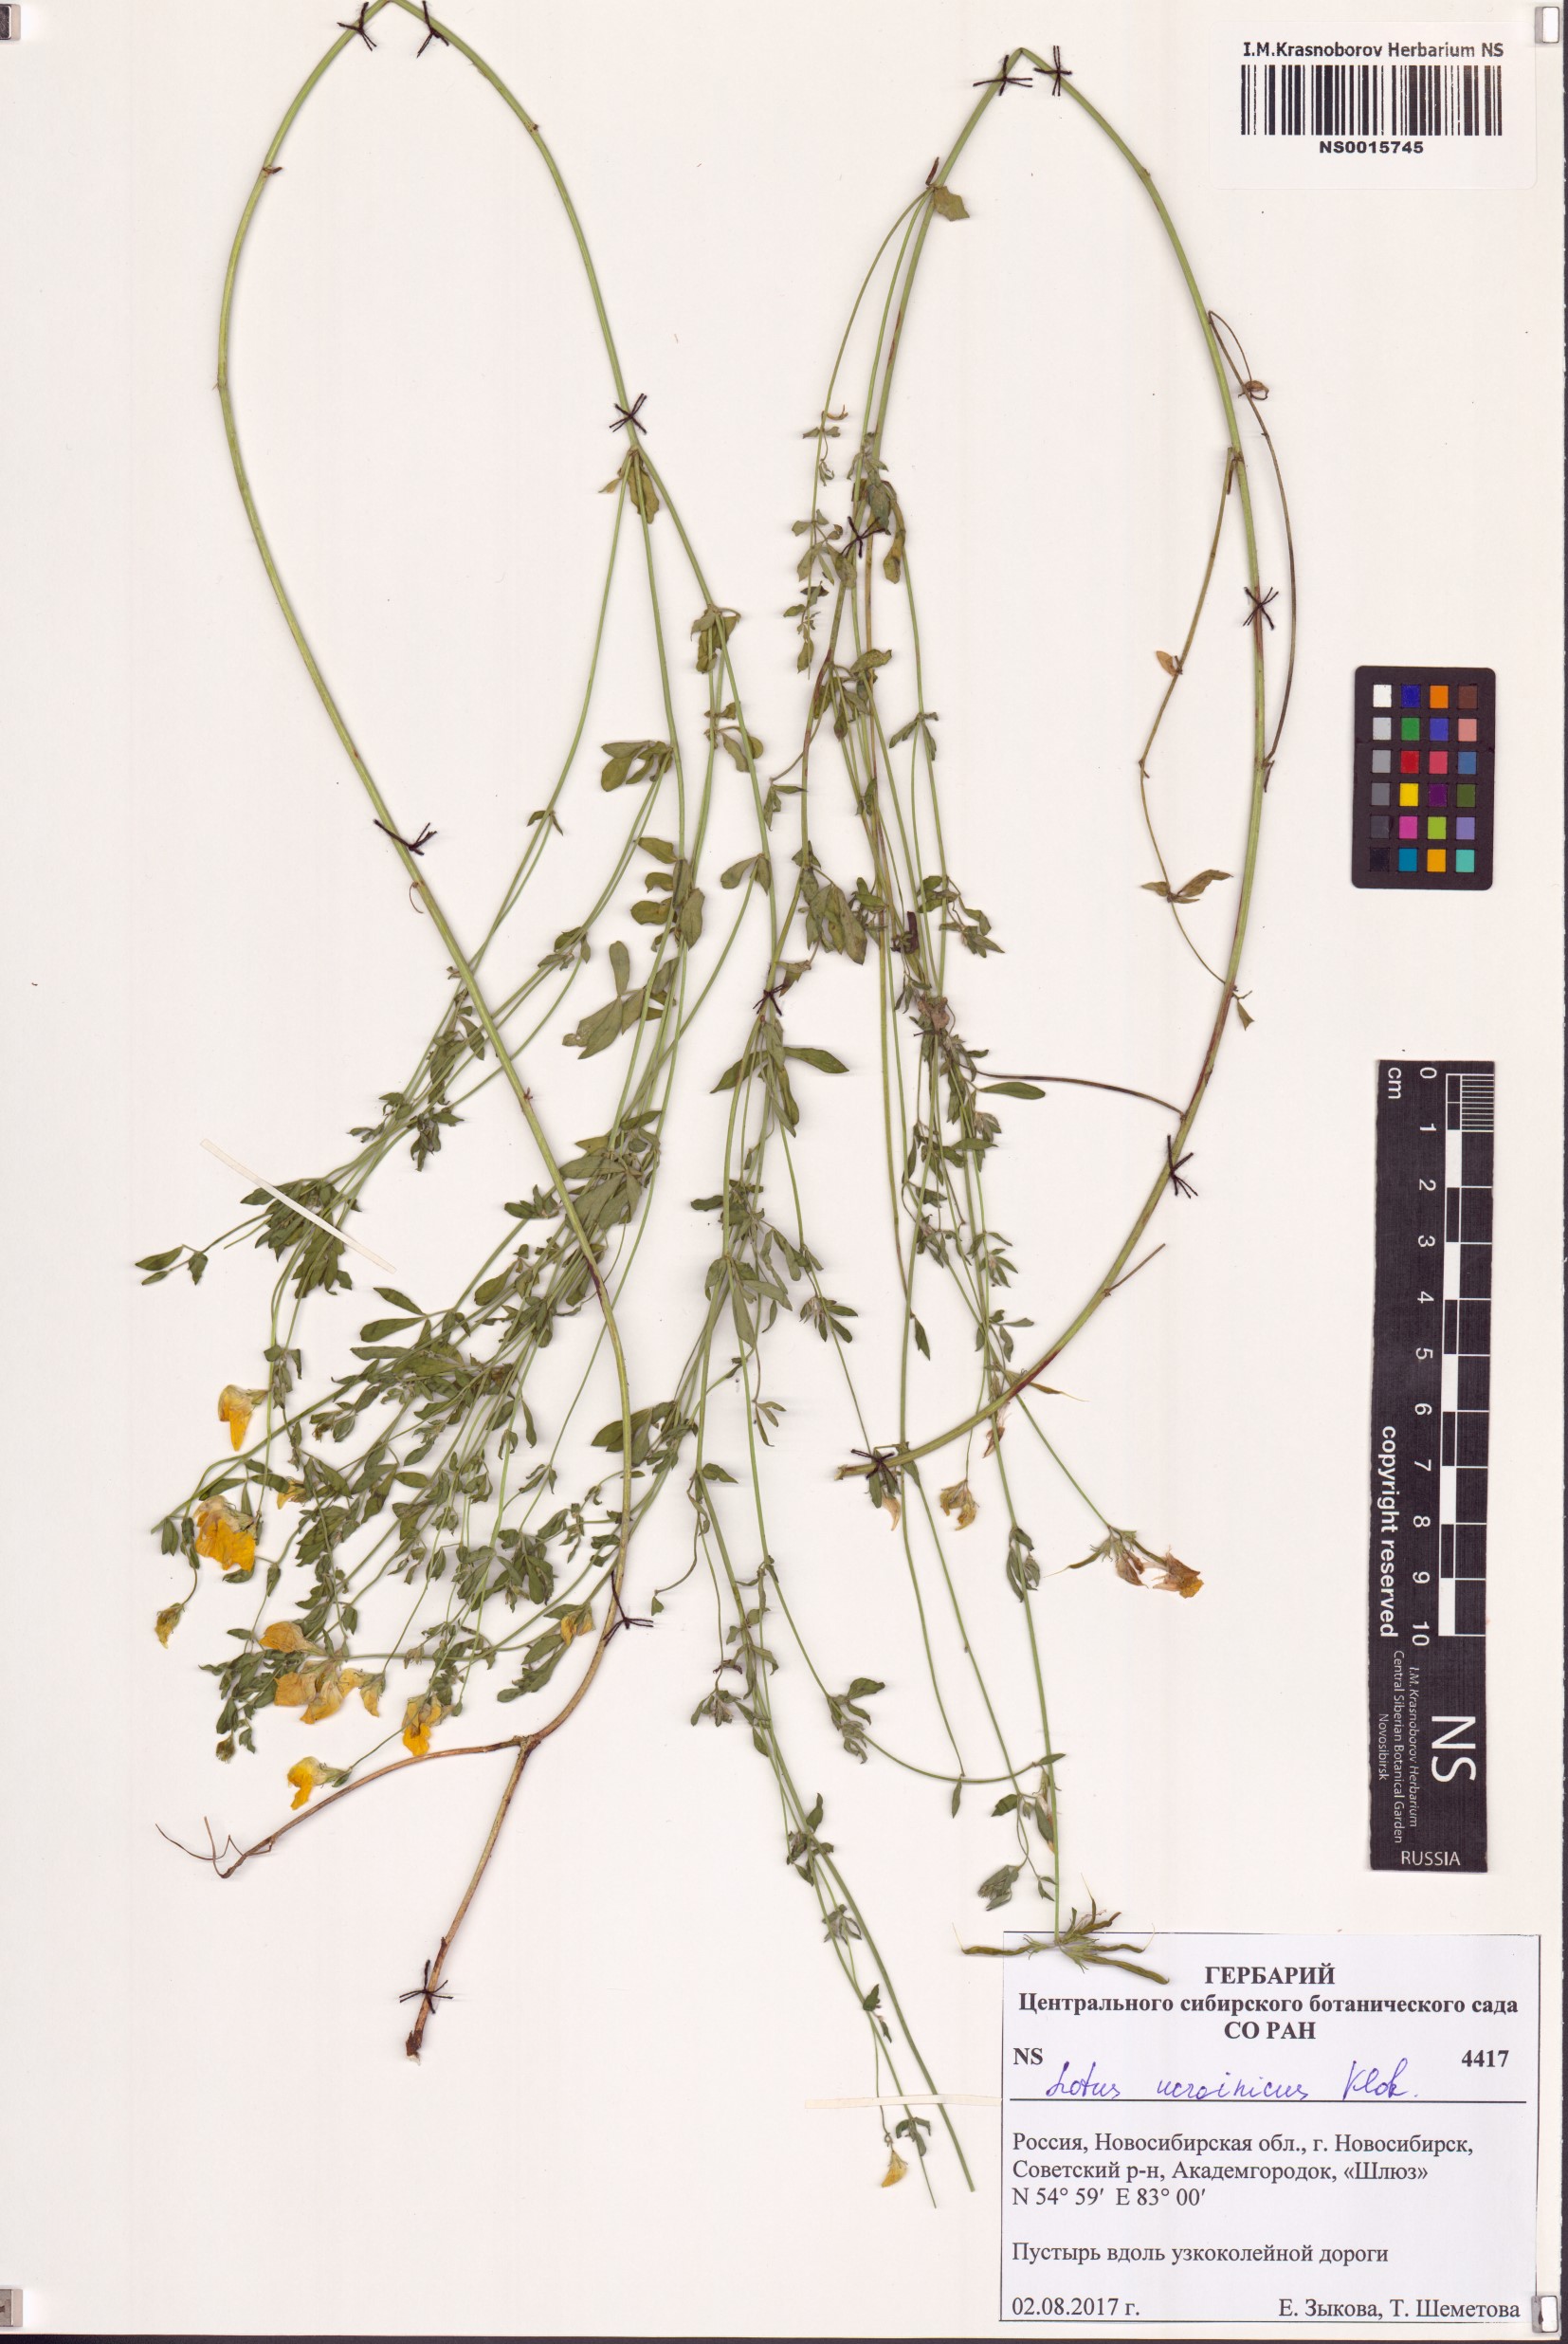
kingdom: Plantae
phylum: Tracheophyta
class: Magnoliopsida
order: Fabales
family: Fabaceae
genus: Lotus
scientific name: Lotus ucrainicus
